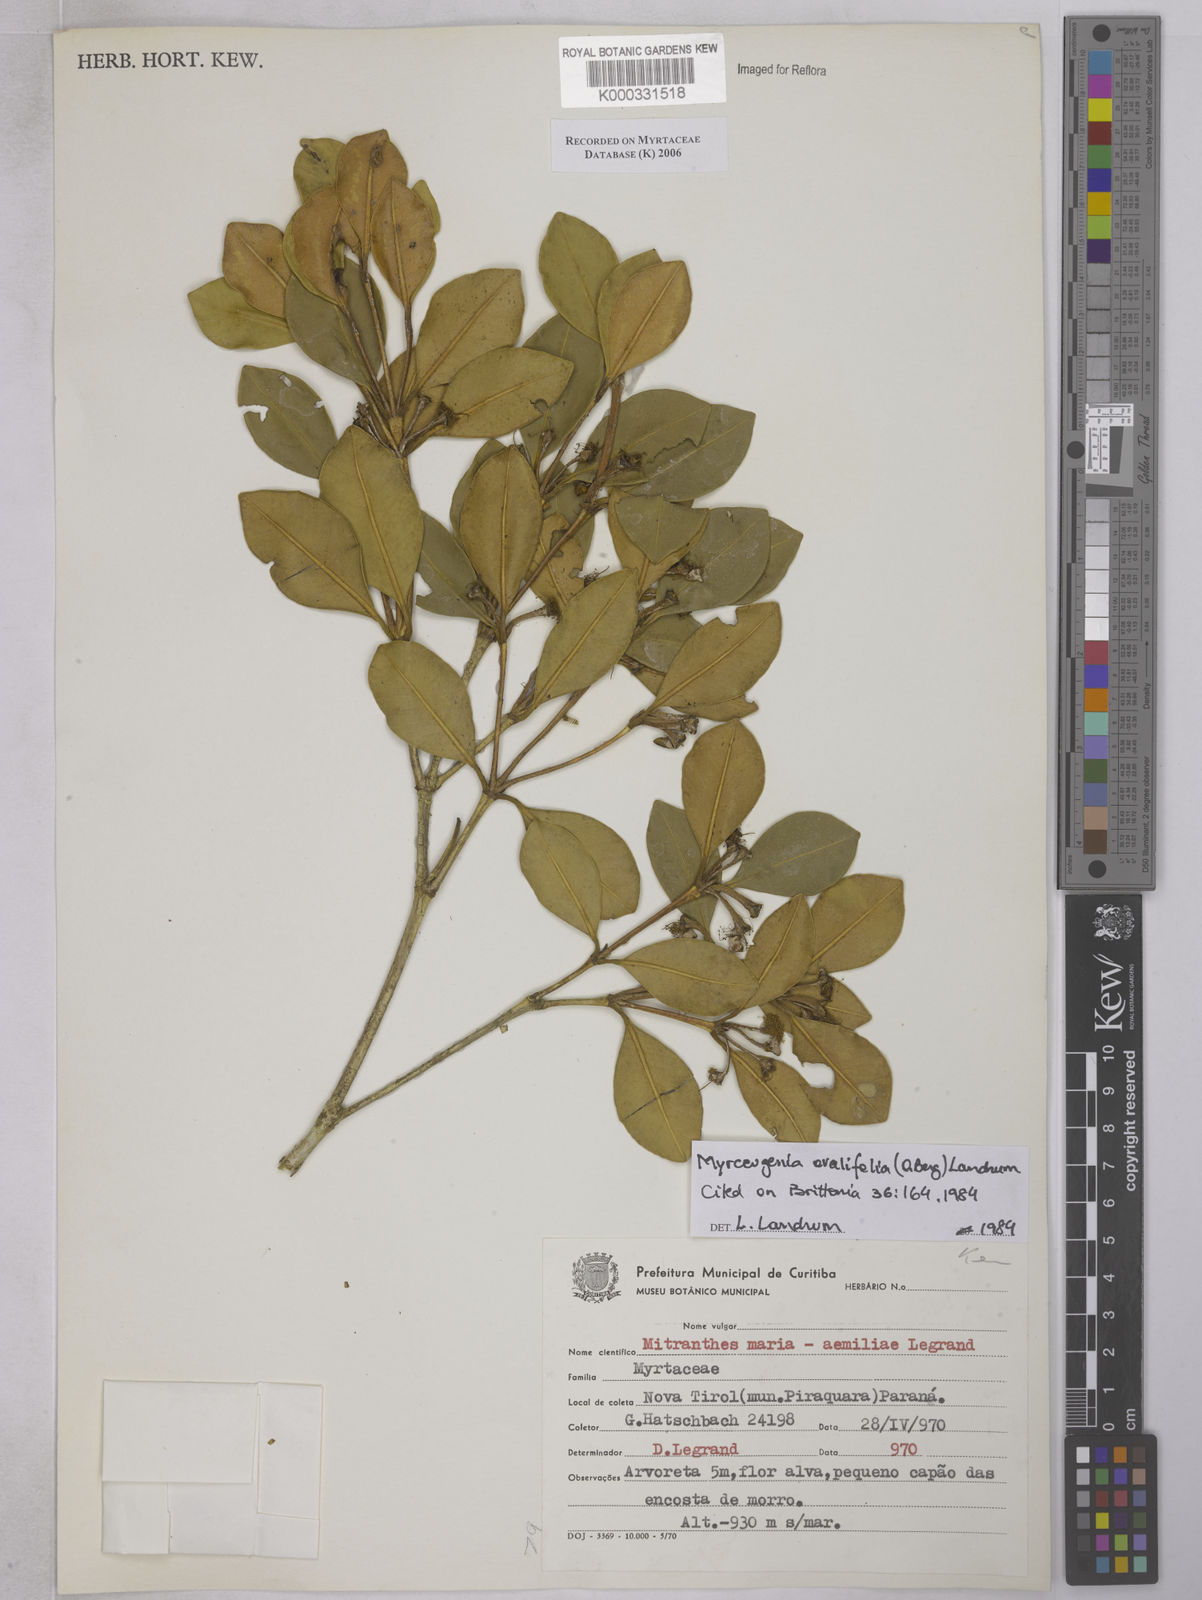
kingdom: Plantae
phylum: Tracheophyta
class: Magnoliopsida
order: Myrtales
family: Myrtaceae
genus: Psidium
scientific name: Psidium
